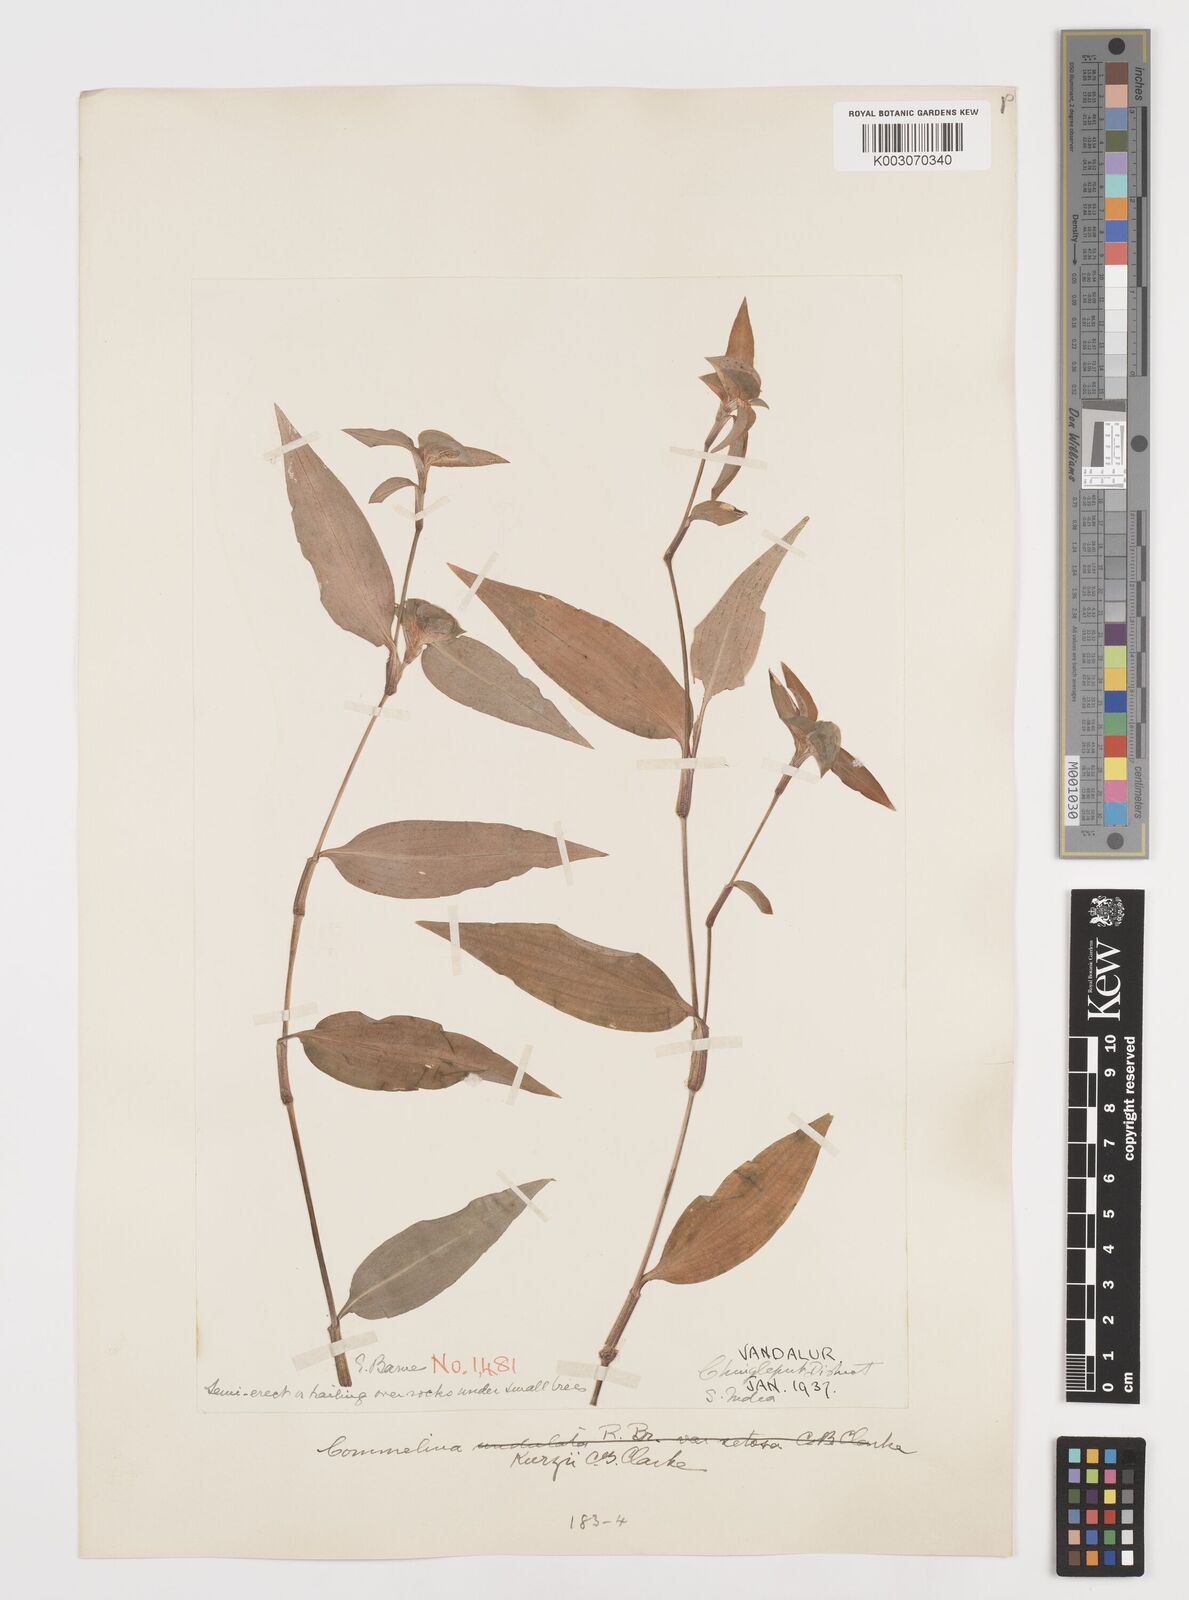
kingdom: Plantae
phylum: Tracheophyta
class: Liliopsida
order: Commelinales
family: Commelinaceae
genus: Commelina
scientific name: Commelina undulata
